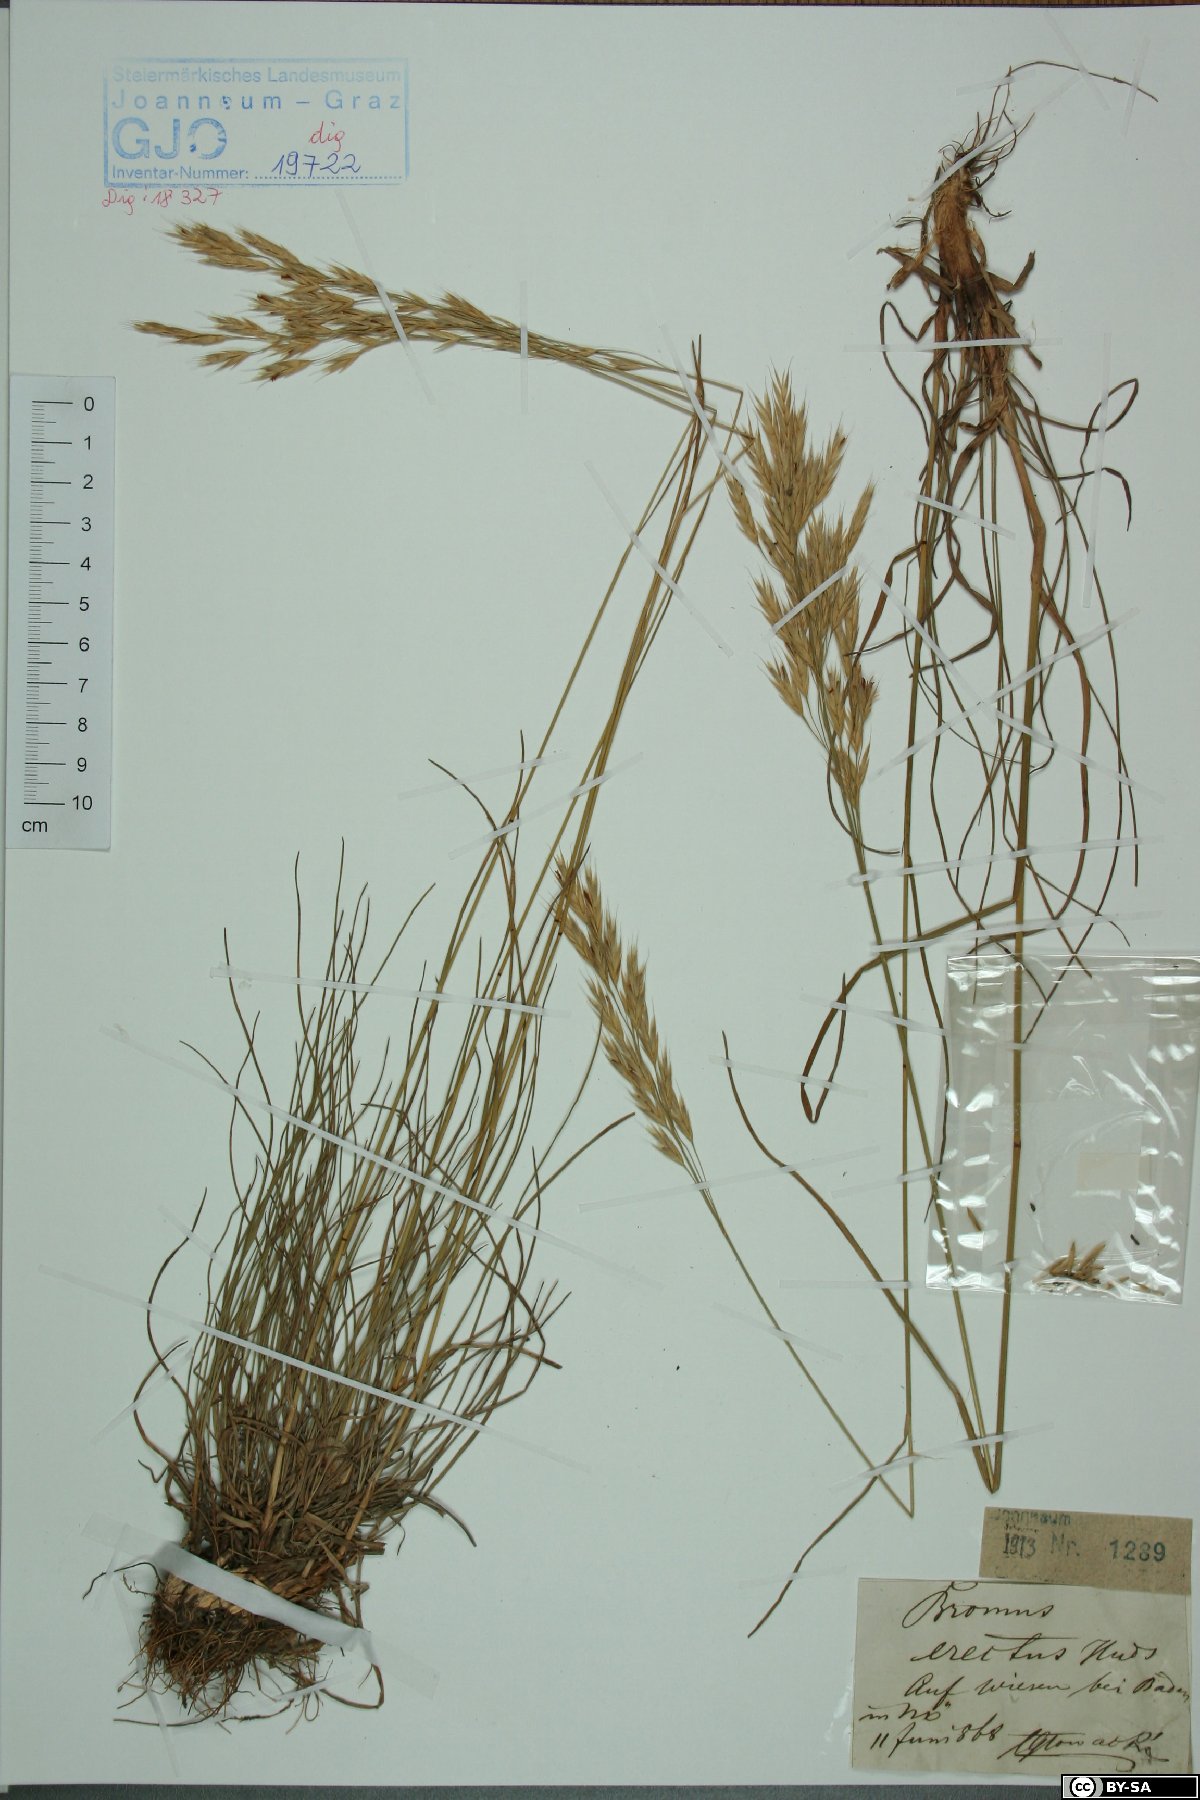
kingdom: Plantae
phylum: Tracheophyta
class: Liliopsida
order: Poales
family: Poaceae
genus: Bromus
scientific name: Bromus erectus
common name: Erect brome
